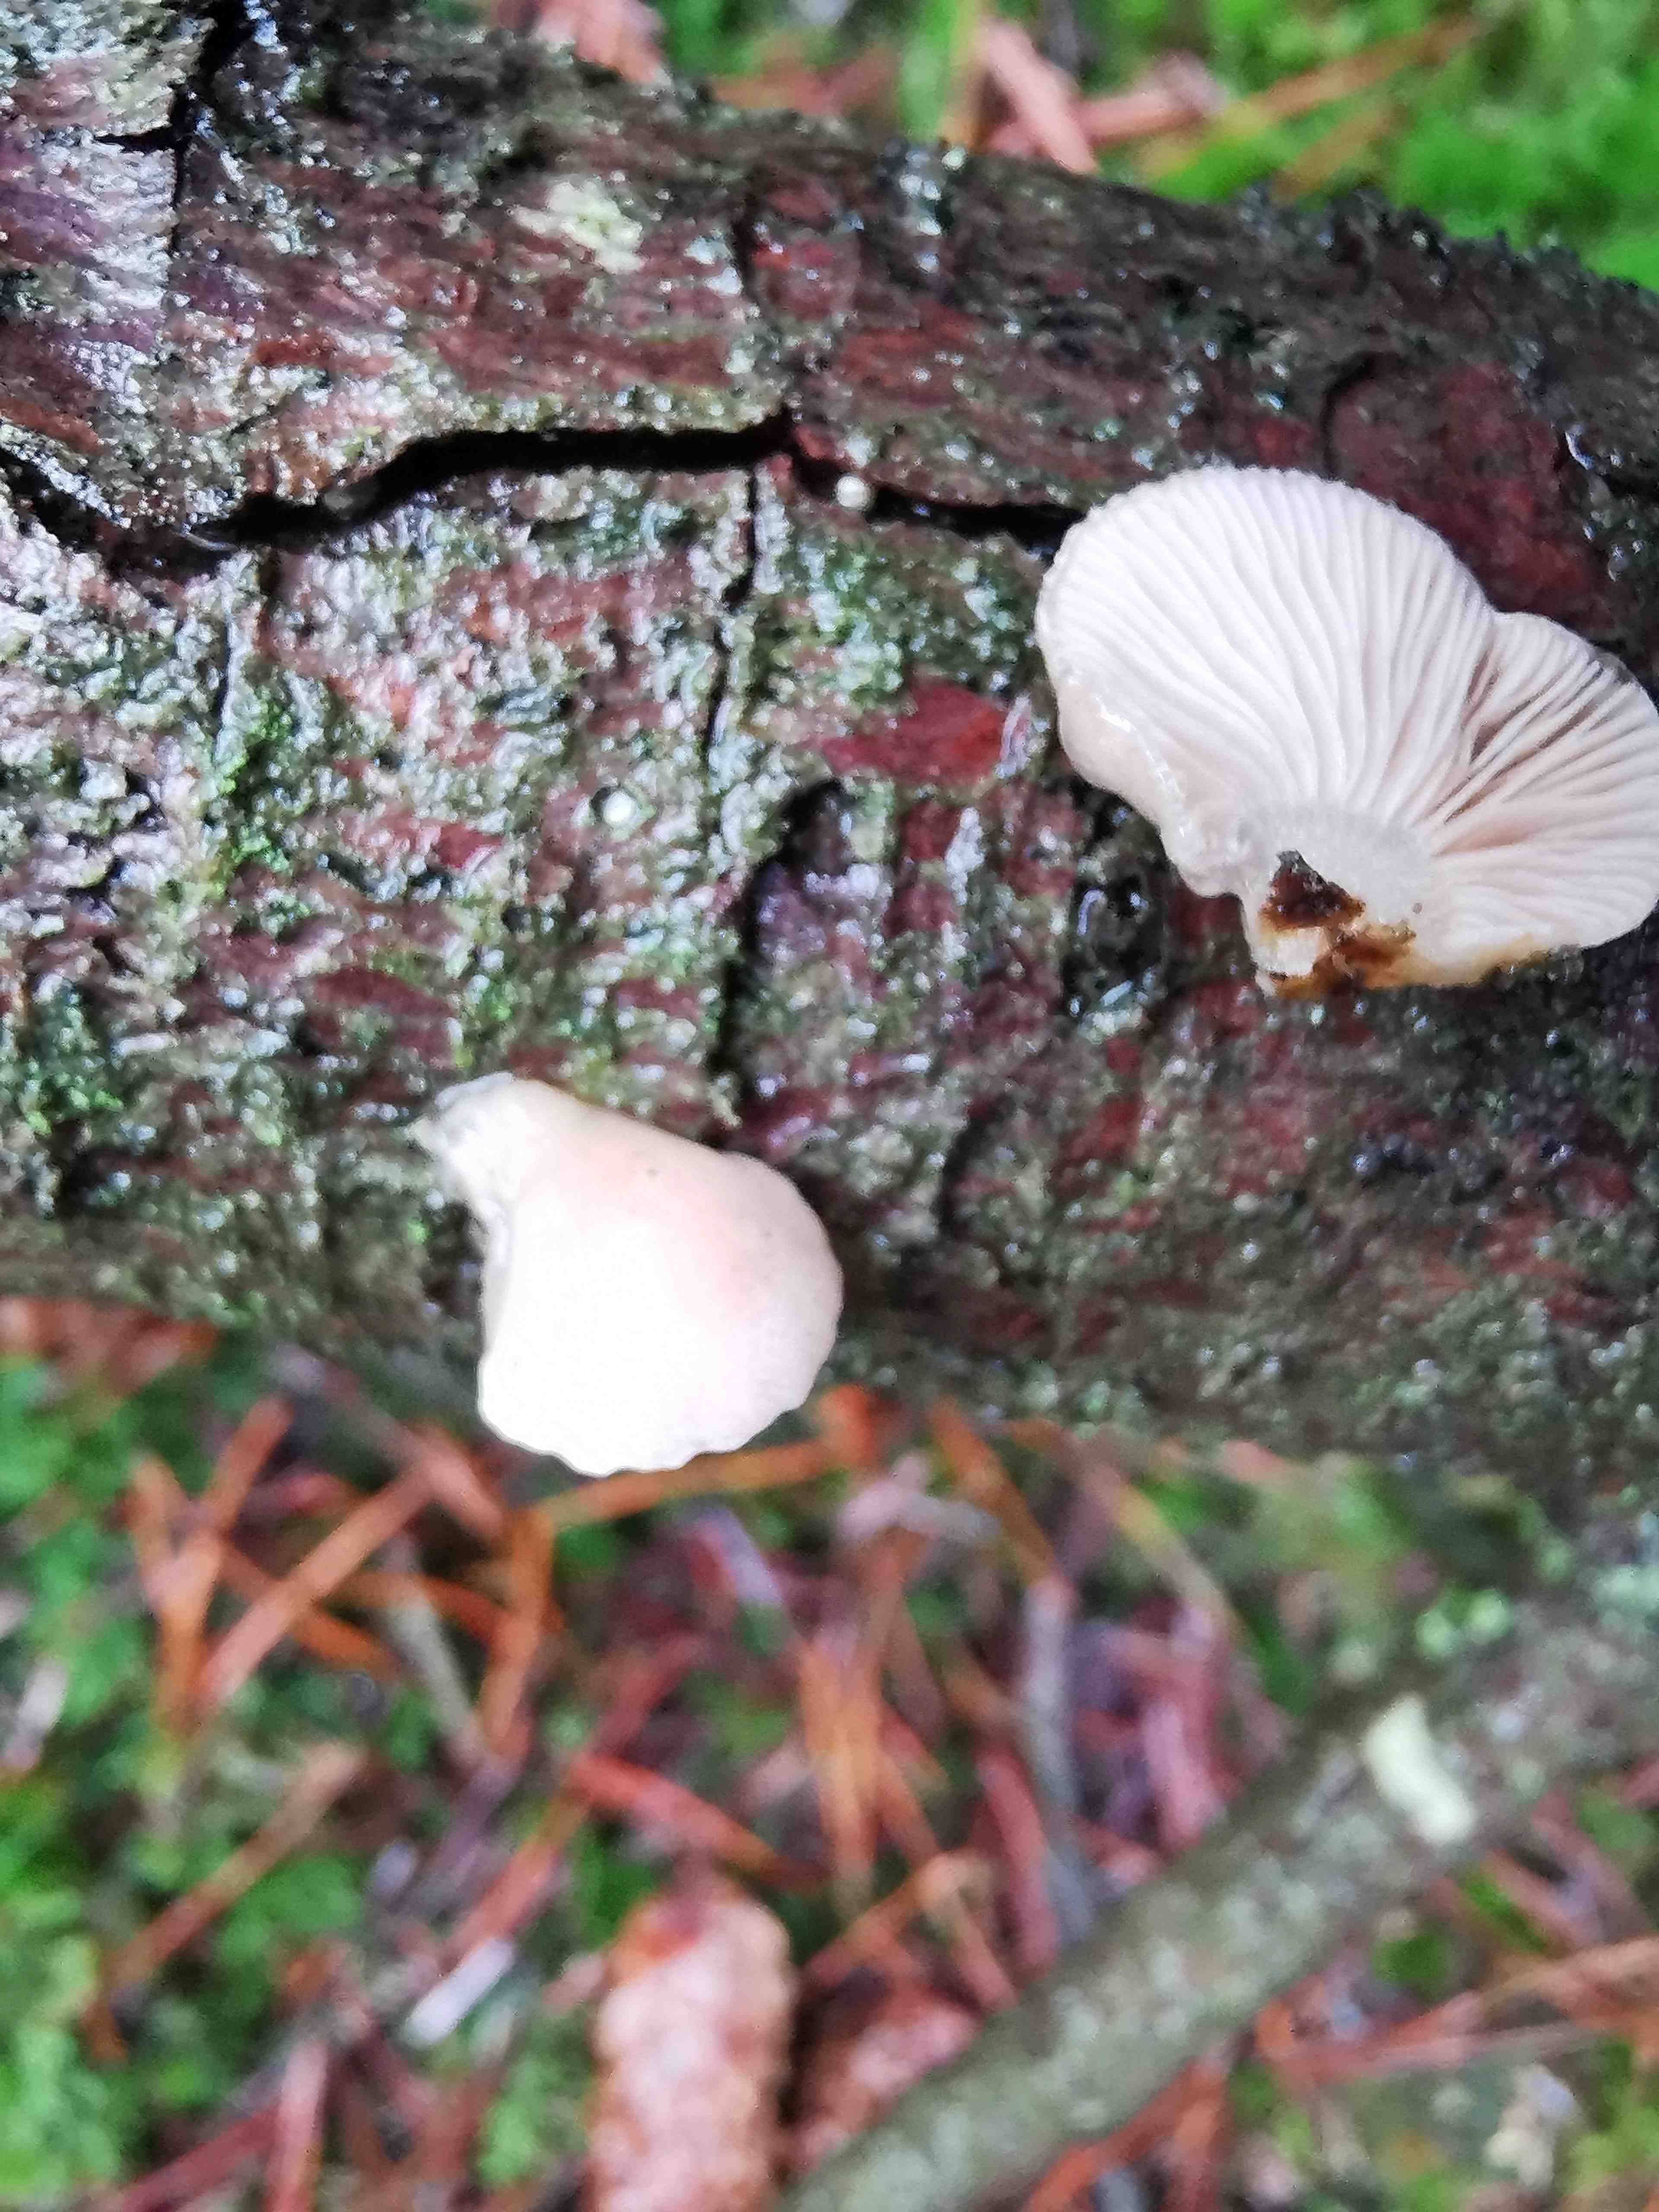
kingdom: Fungi
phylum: Basidiomycota
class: Agaricomycetes
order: Agaricales
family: Mycenaceae
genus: Panellus
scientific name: Panellus mitis
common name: mild epaulethat
